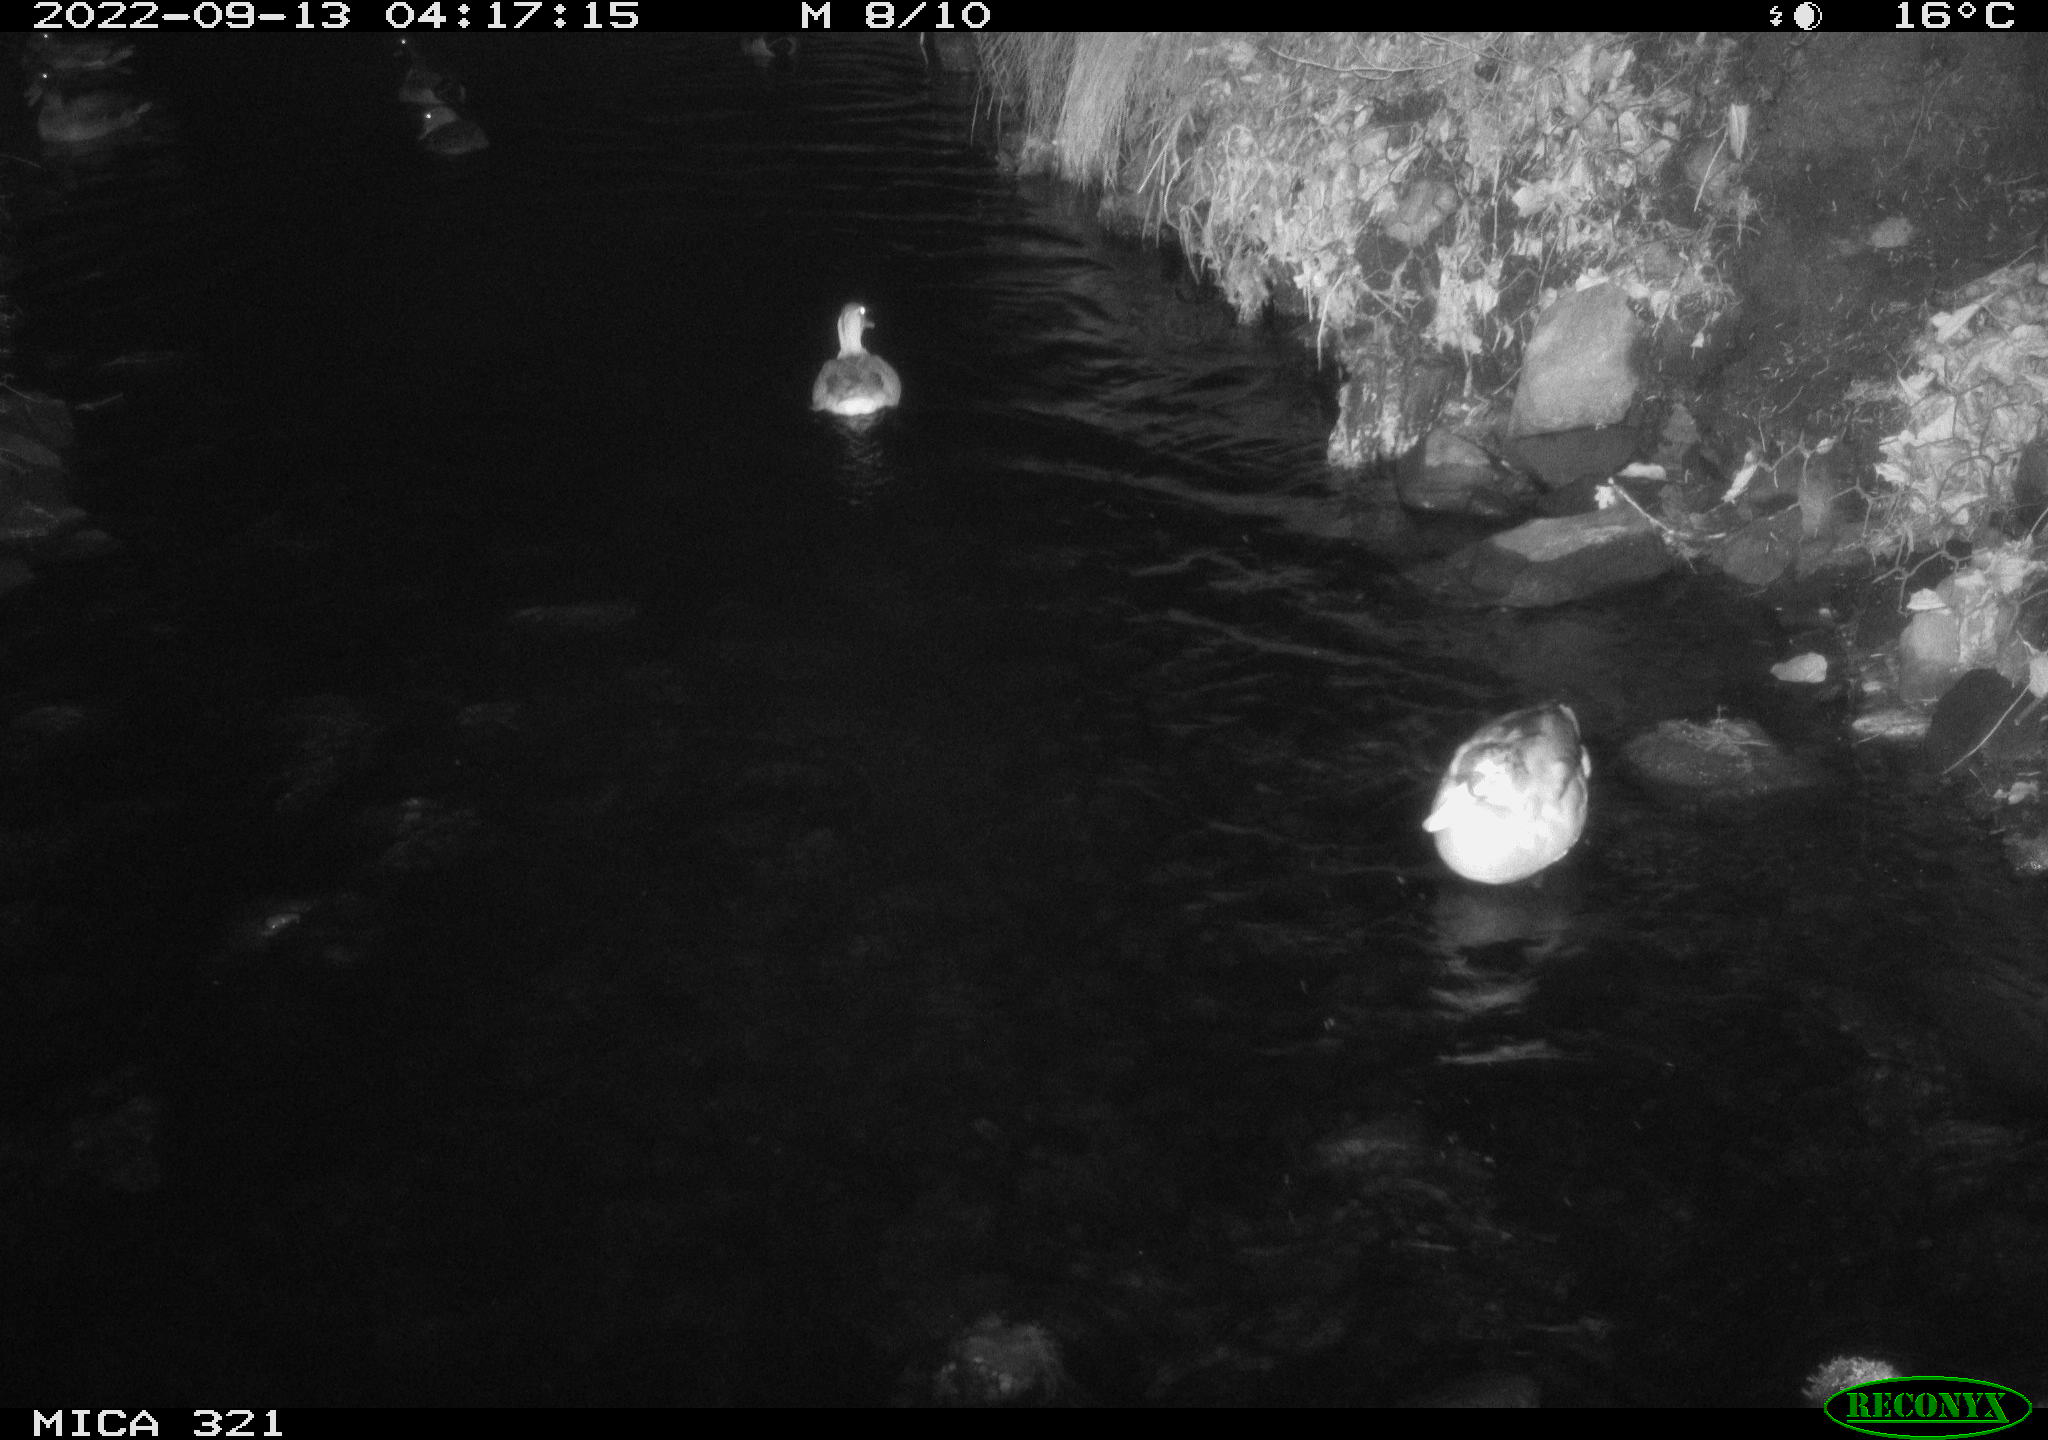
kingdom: Animalia
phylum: Chordata
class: Aves
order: Anseriformes
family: Anatidae
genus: Anas
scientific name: Anas
